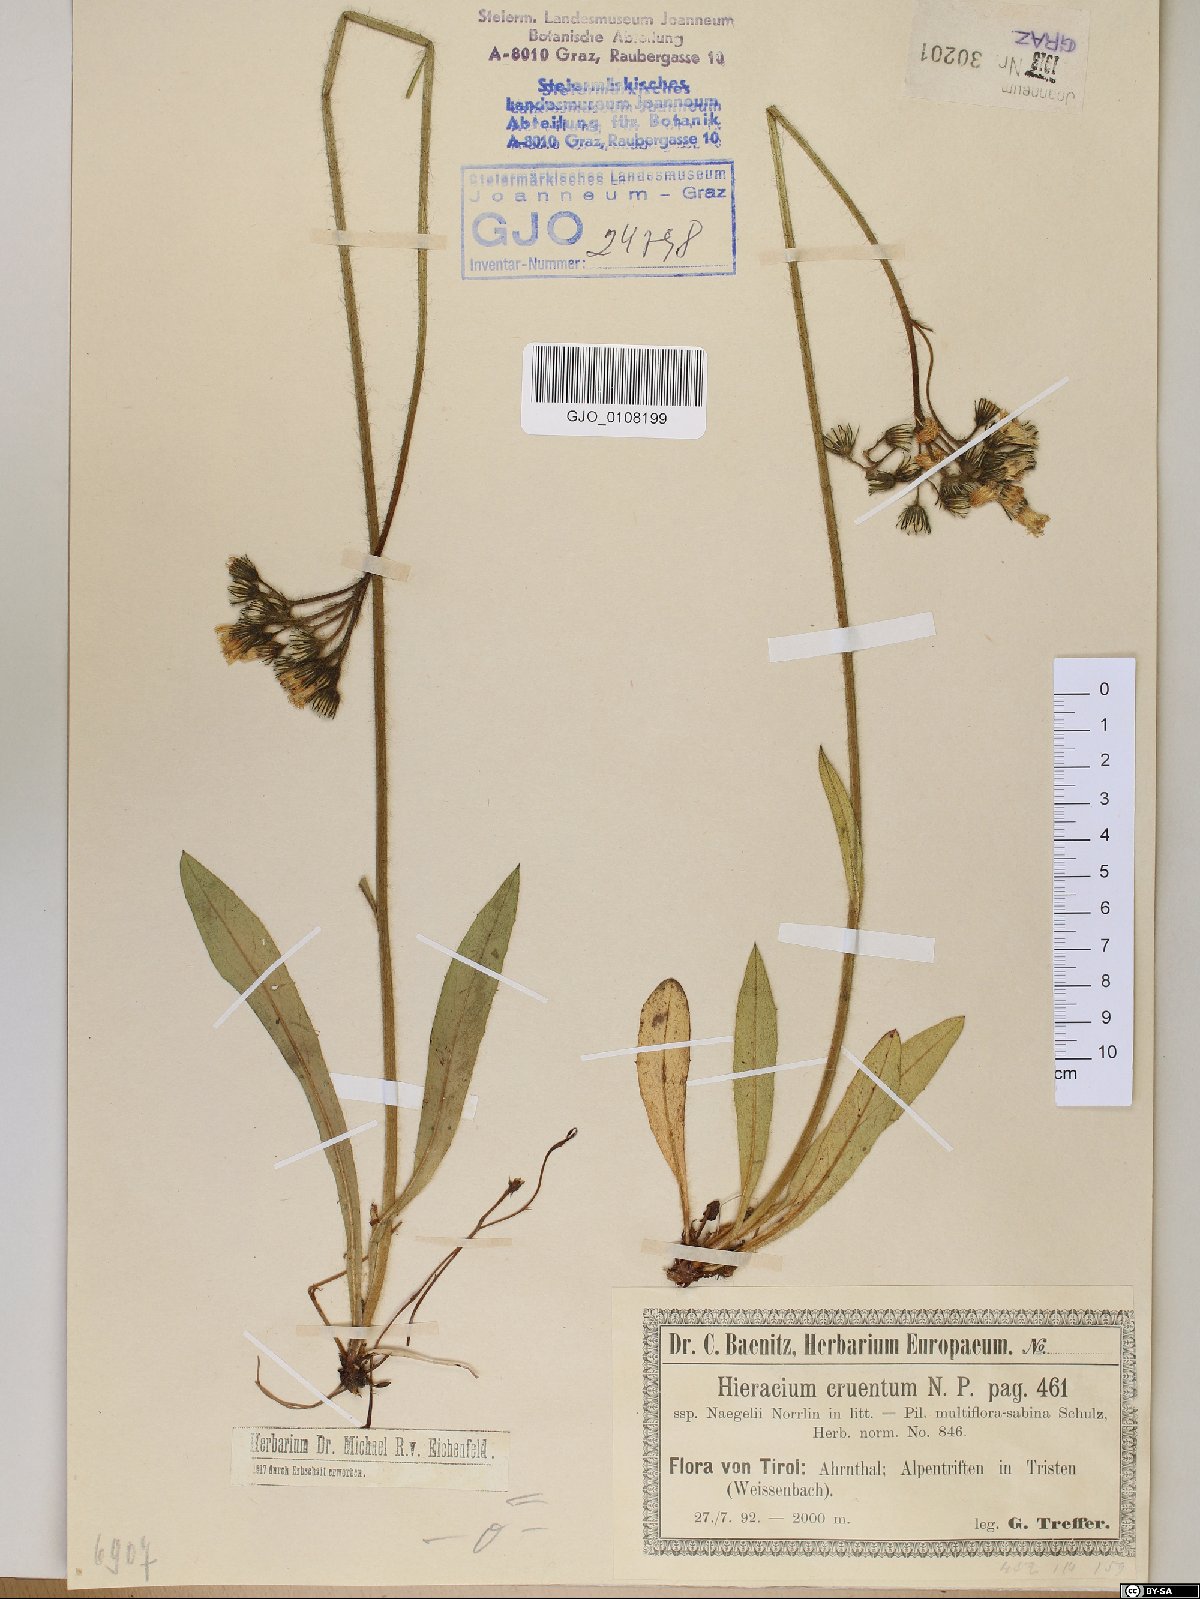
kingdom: Plantae
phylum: Tracheophyta
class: Magnoliopsida
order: Asterales
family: Asteraceae
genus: Pilosella
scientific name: Pilosella guthnikiana
